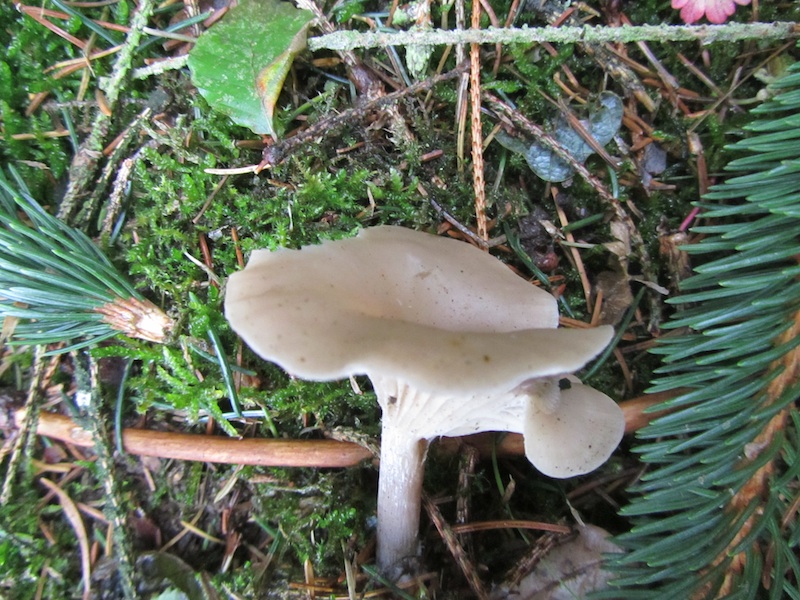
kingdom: Fungi
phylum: Basidiomycota
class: Agaricomycetes
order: Agaricales
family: Tricholomataceae
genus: Clitocybe
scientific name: Clitocybe metachroa
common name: grå tragthat
